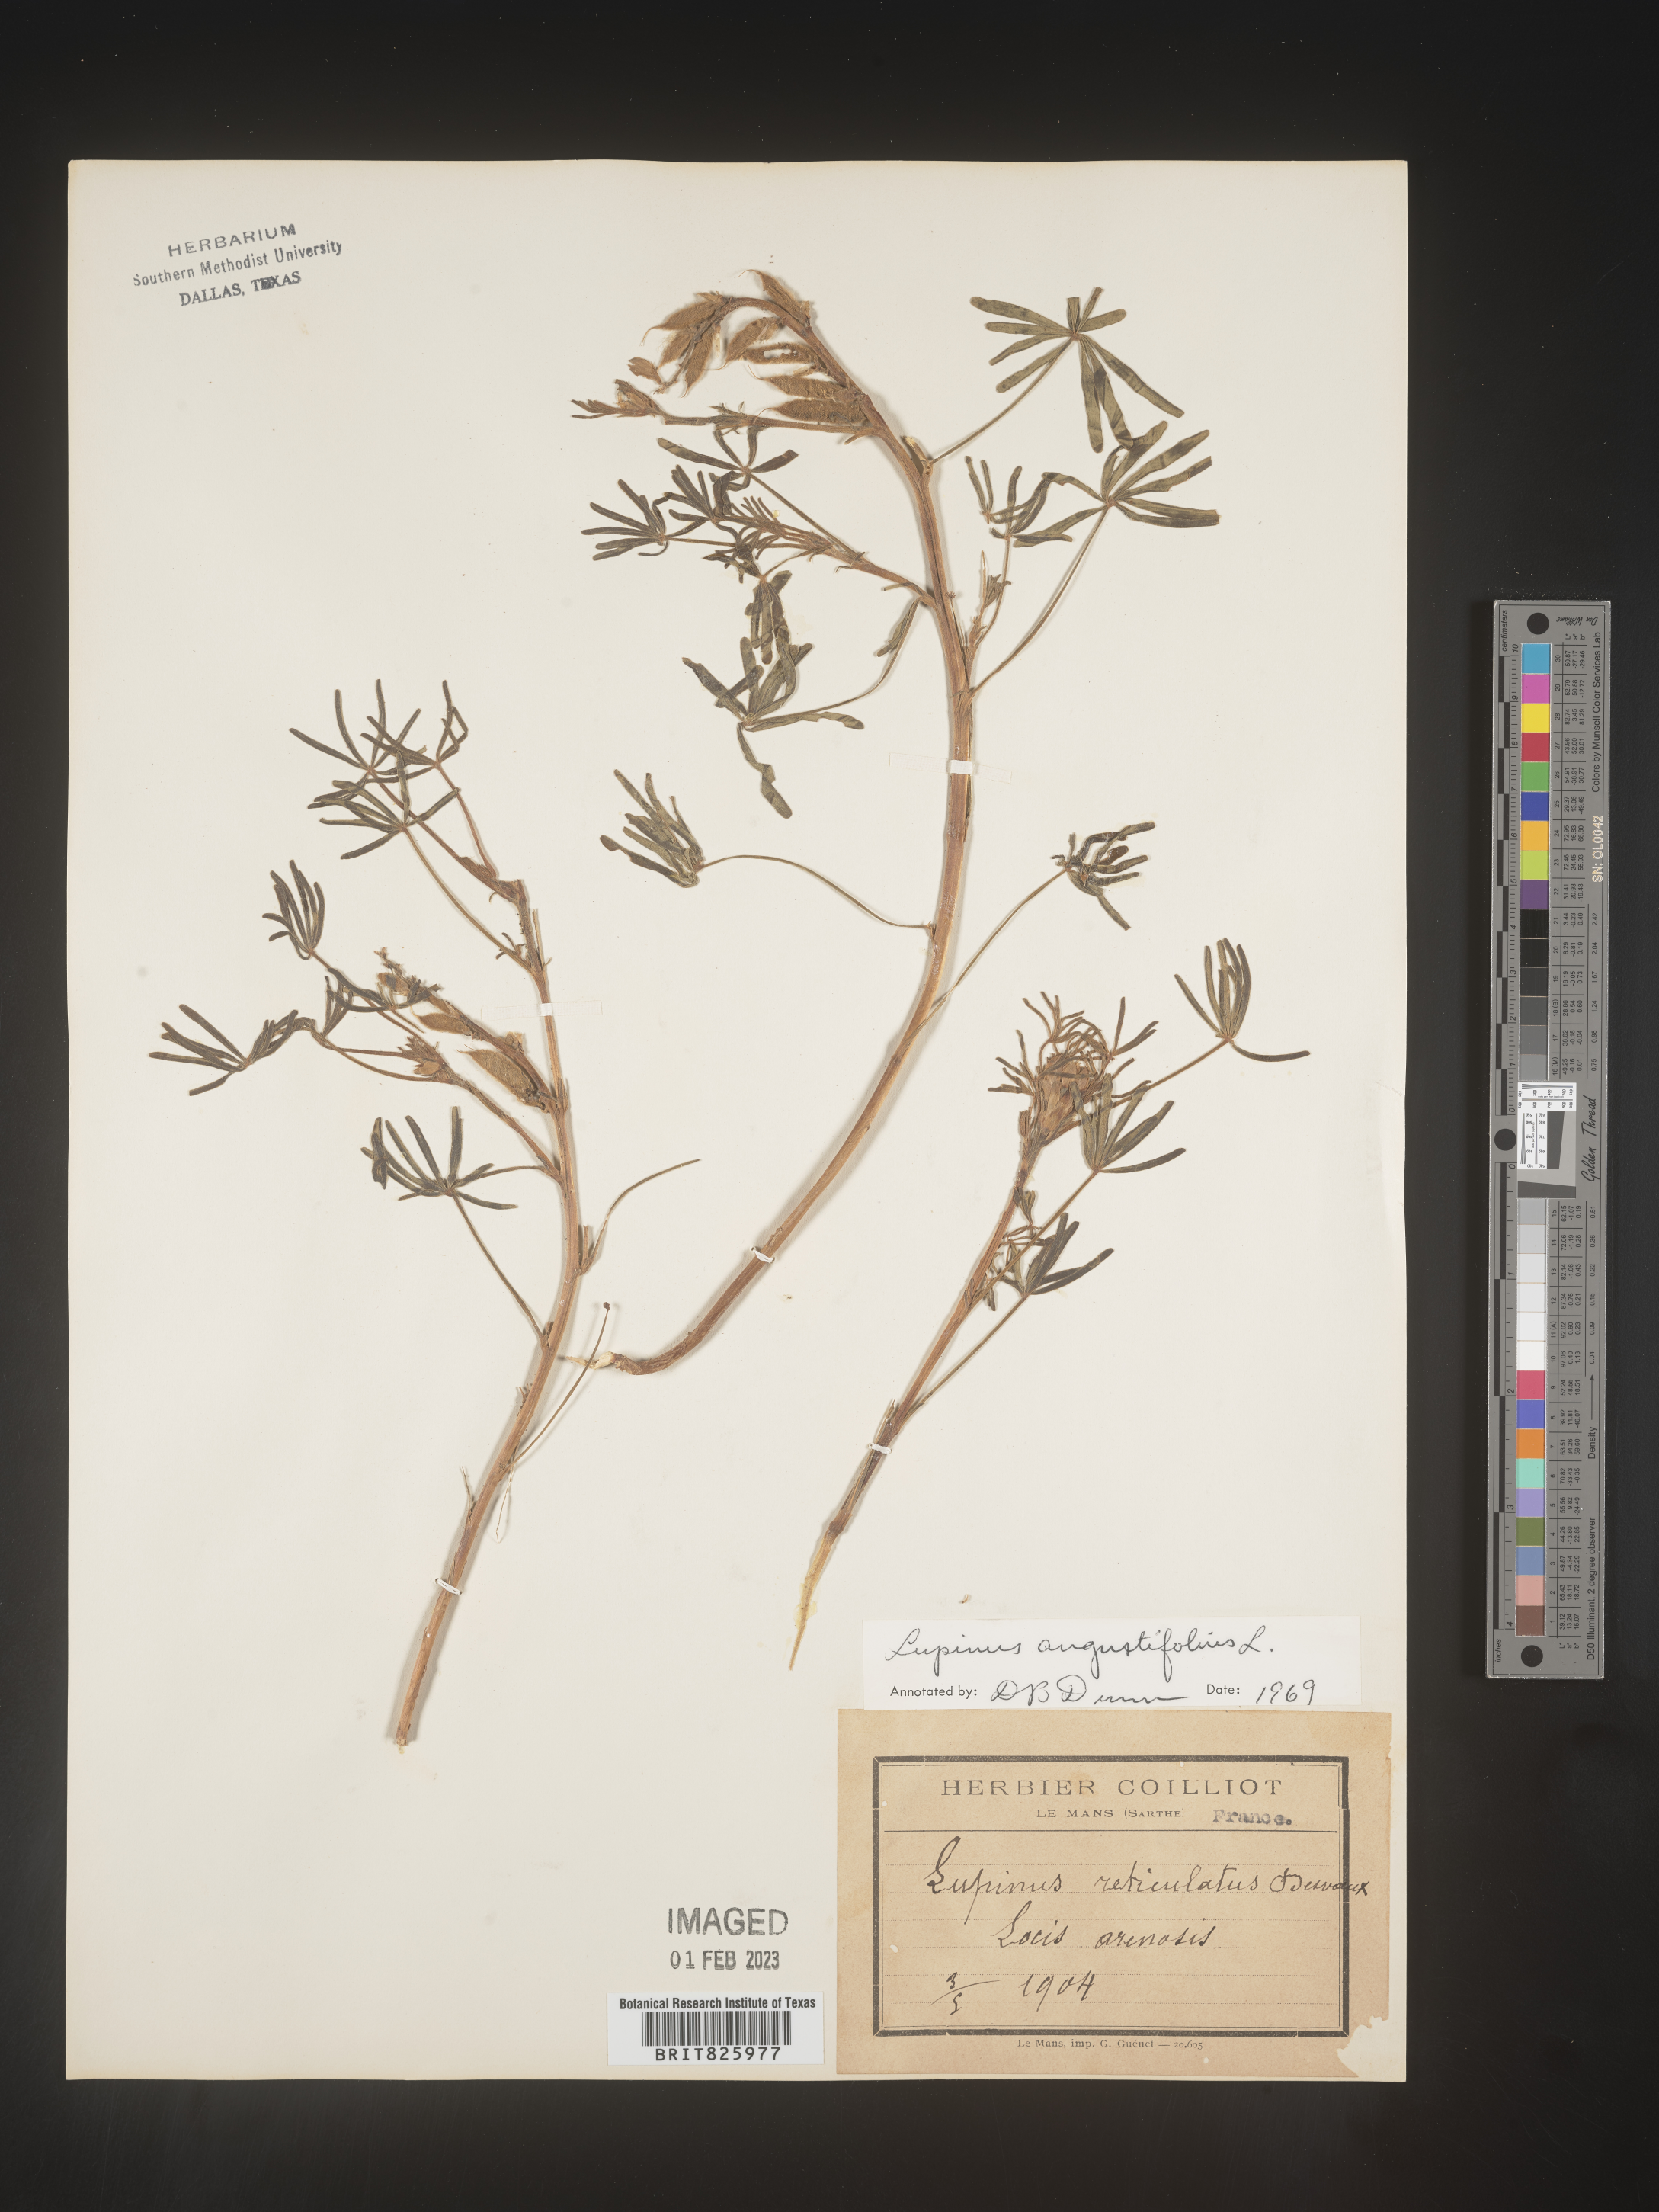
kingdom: Plantae
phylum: Tracheophyta
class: Magnoliopsida
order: Fabales
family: Fabaceae
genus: Lupinus
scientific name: Lupinus
